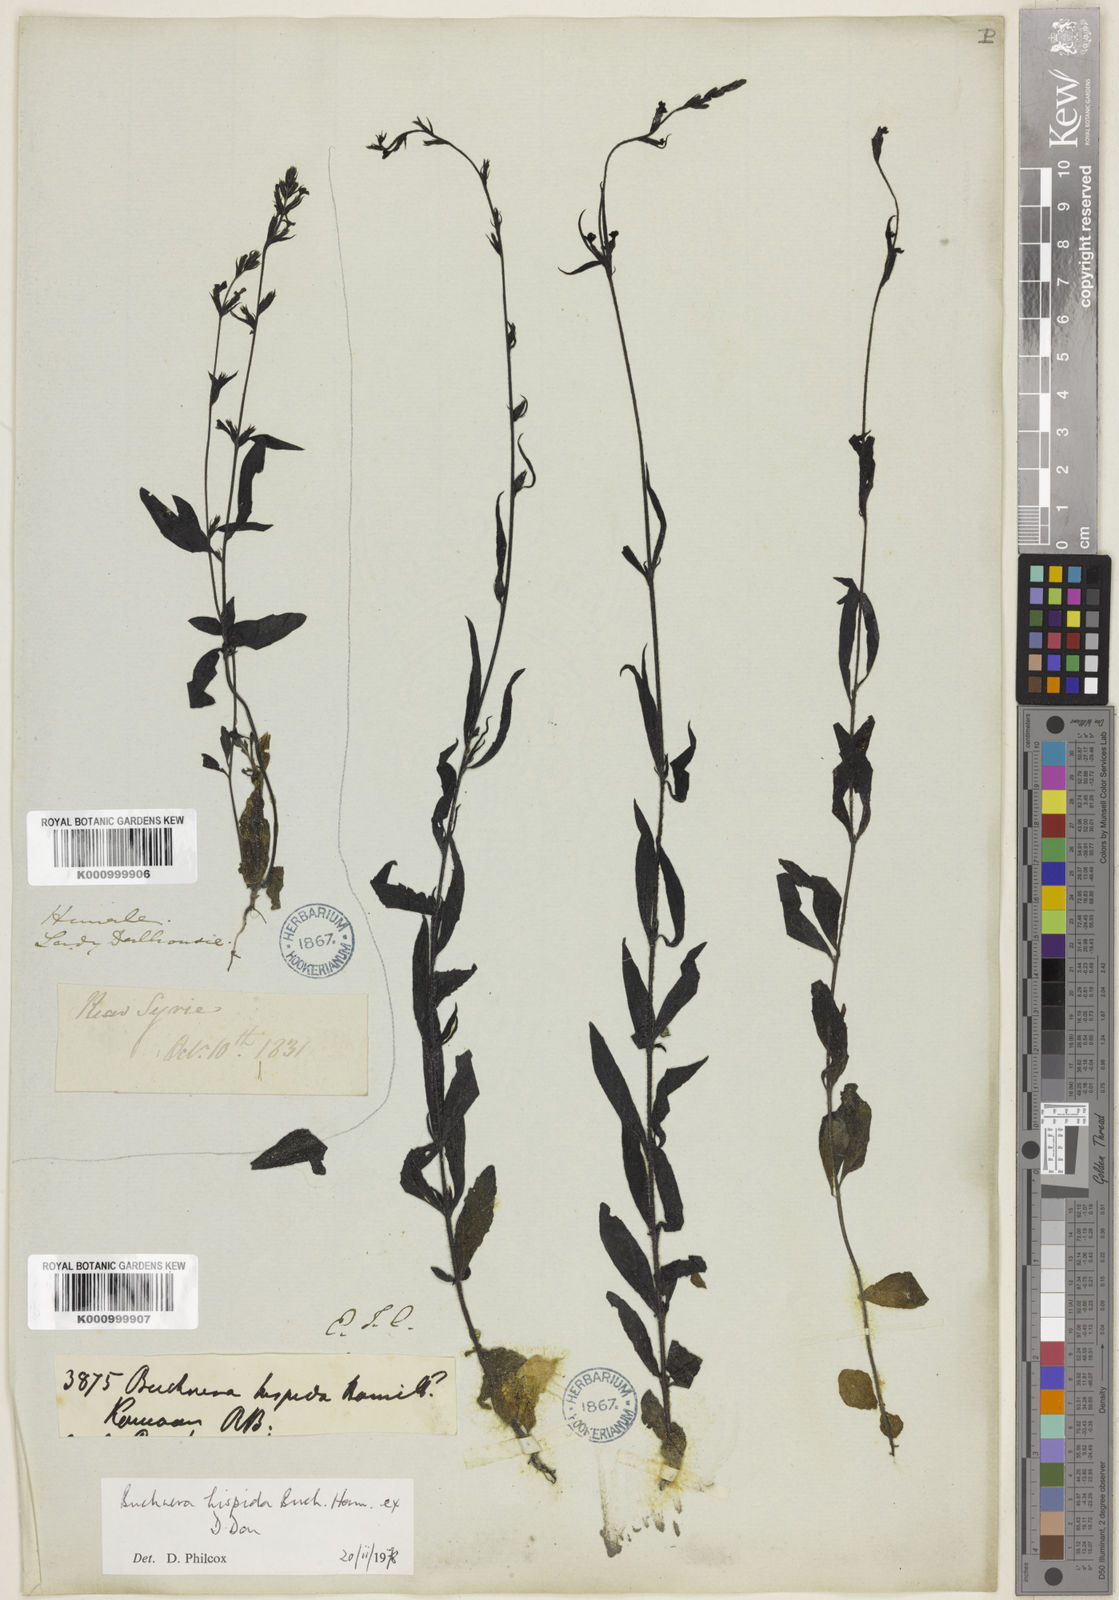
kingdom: Plantae
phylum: Tracheophyta
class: Magnoliopsida
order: Lamiales
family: Orobanchaceae
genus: Buchnera
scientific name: Buchnera hispida
